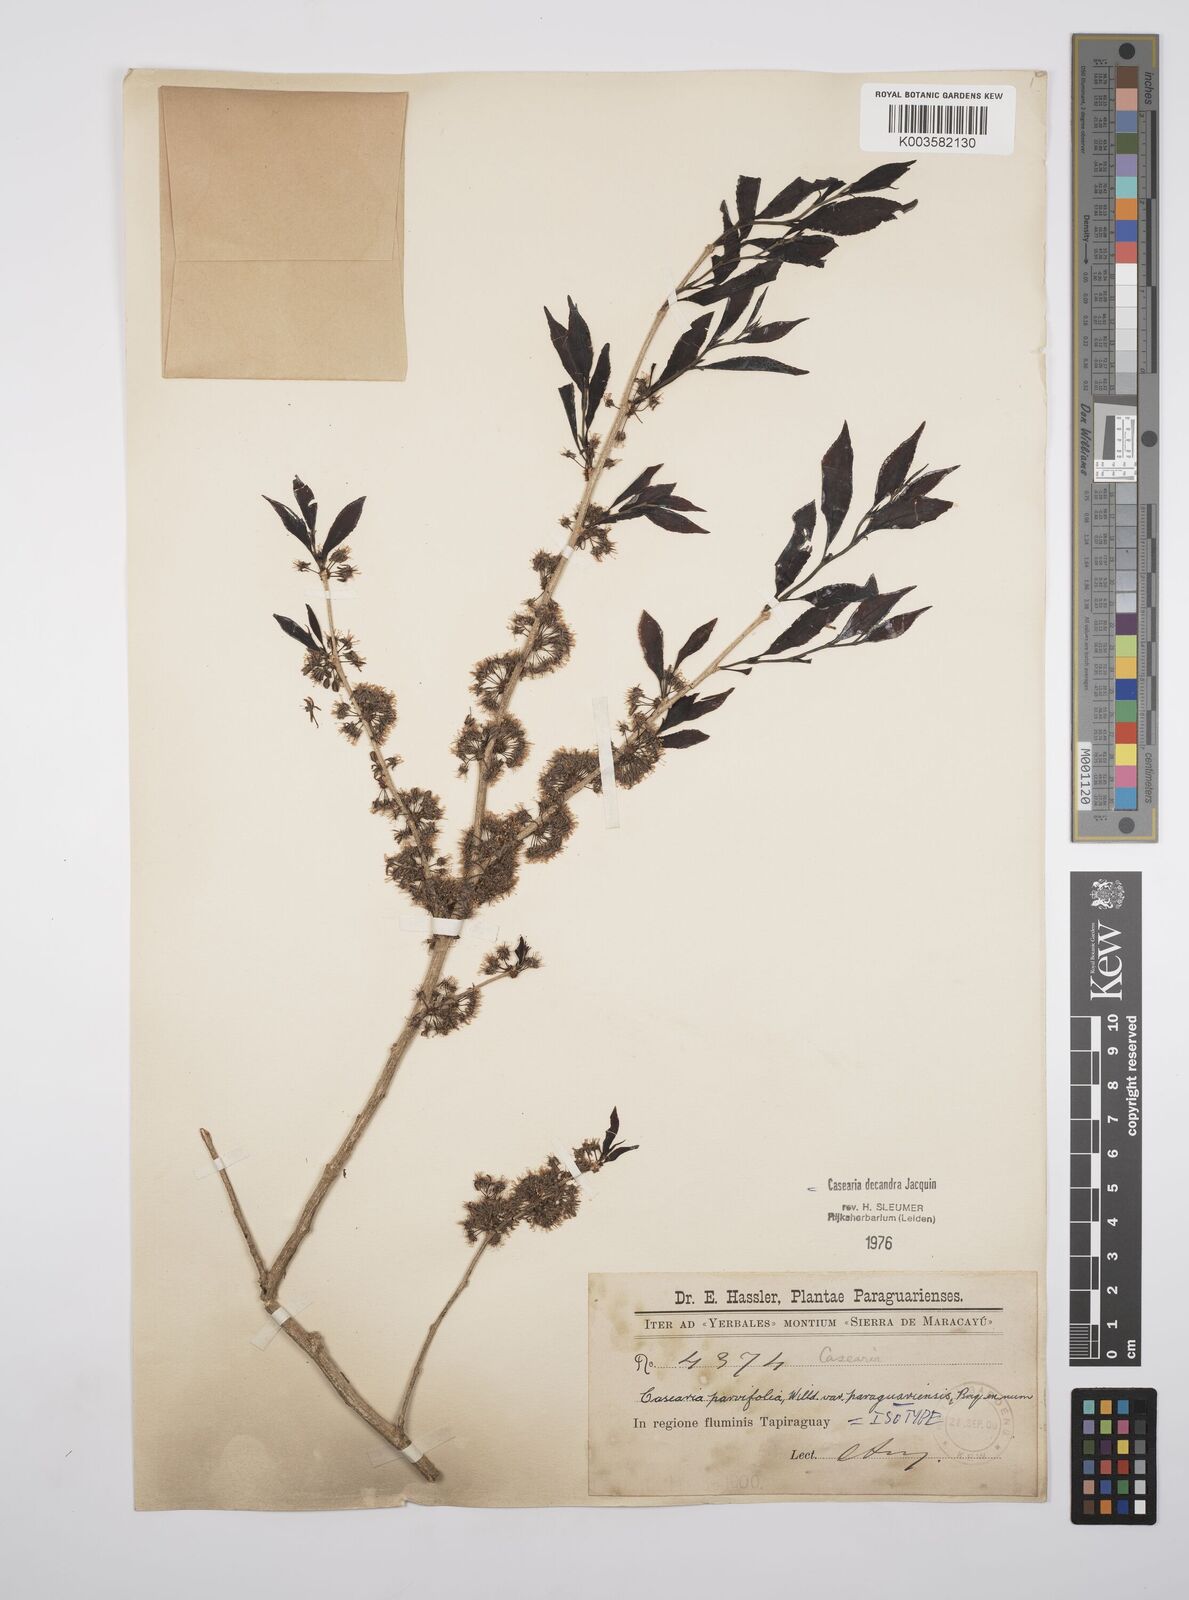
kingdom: Plantae
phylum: Tracheophyta
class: Magnoliopsida
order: Malpighiales
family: Salicaceae
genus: Casearia
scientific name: Casearia
